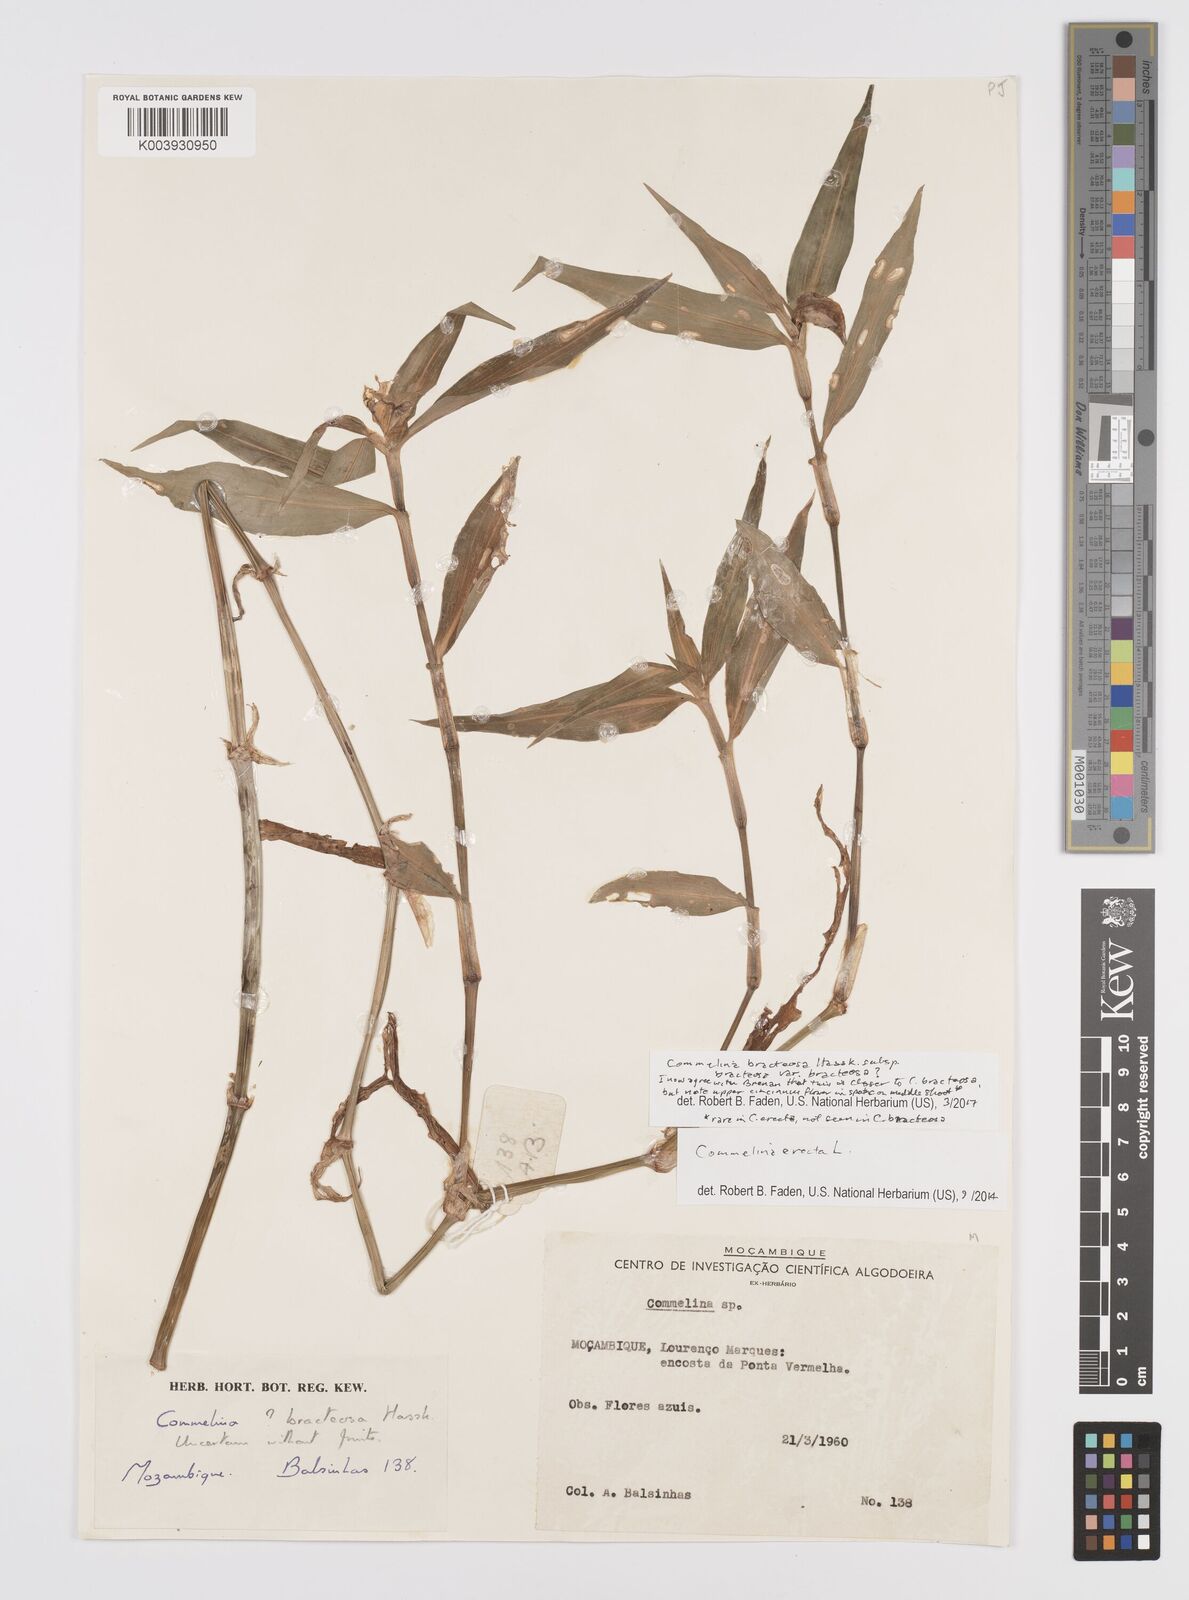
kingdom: Plantae
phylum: Tracheophyta
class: Liliopsida
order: Commelinales
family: Commelinaceae
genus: Commelina
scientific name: Commelina bracteosa
